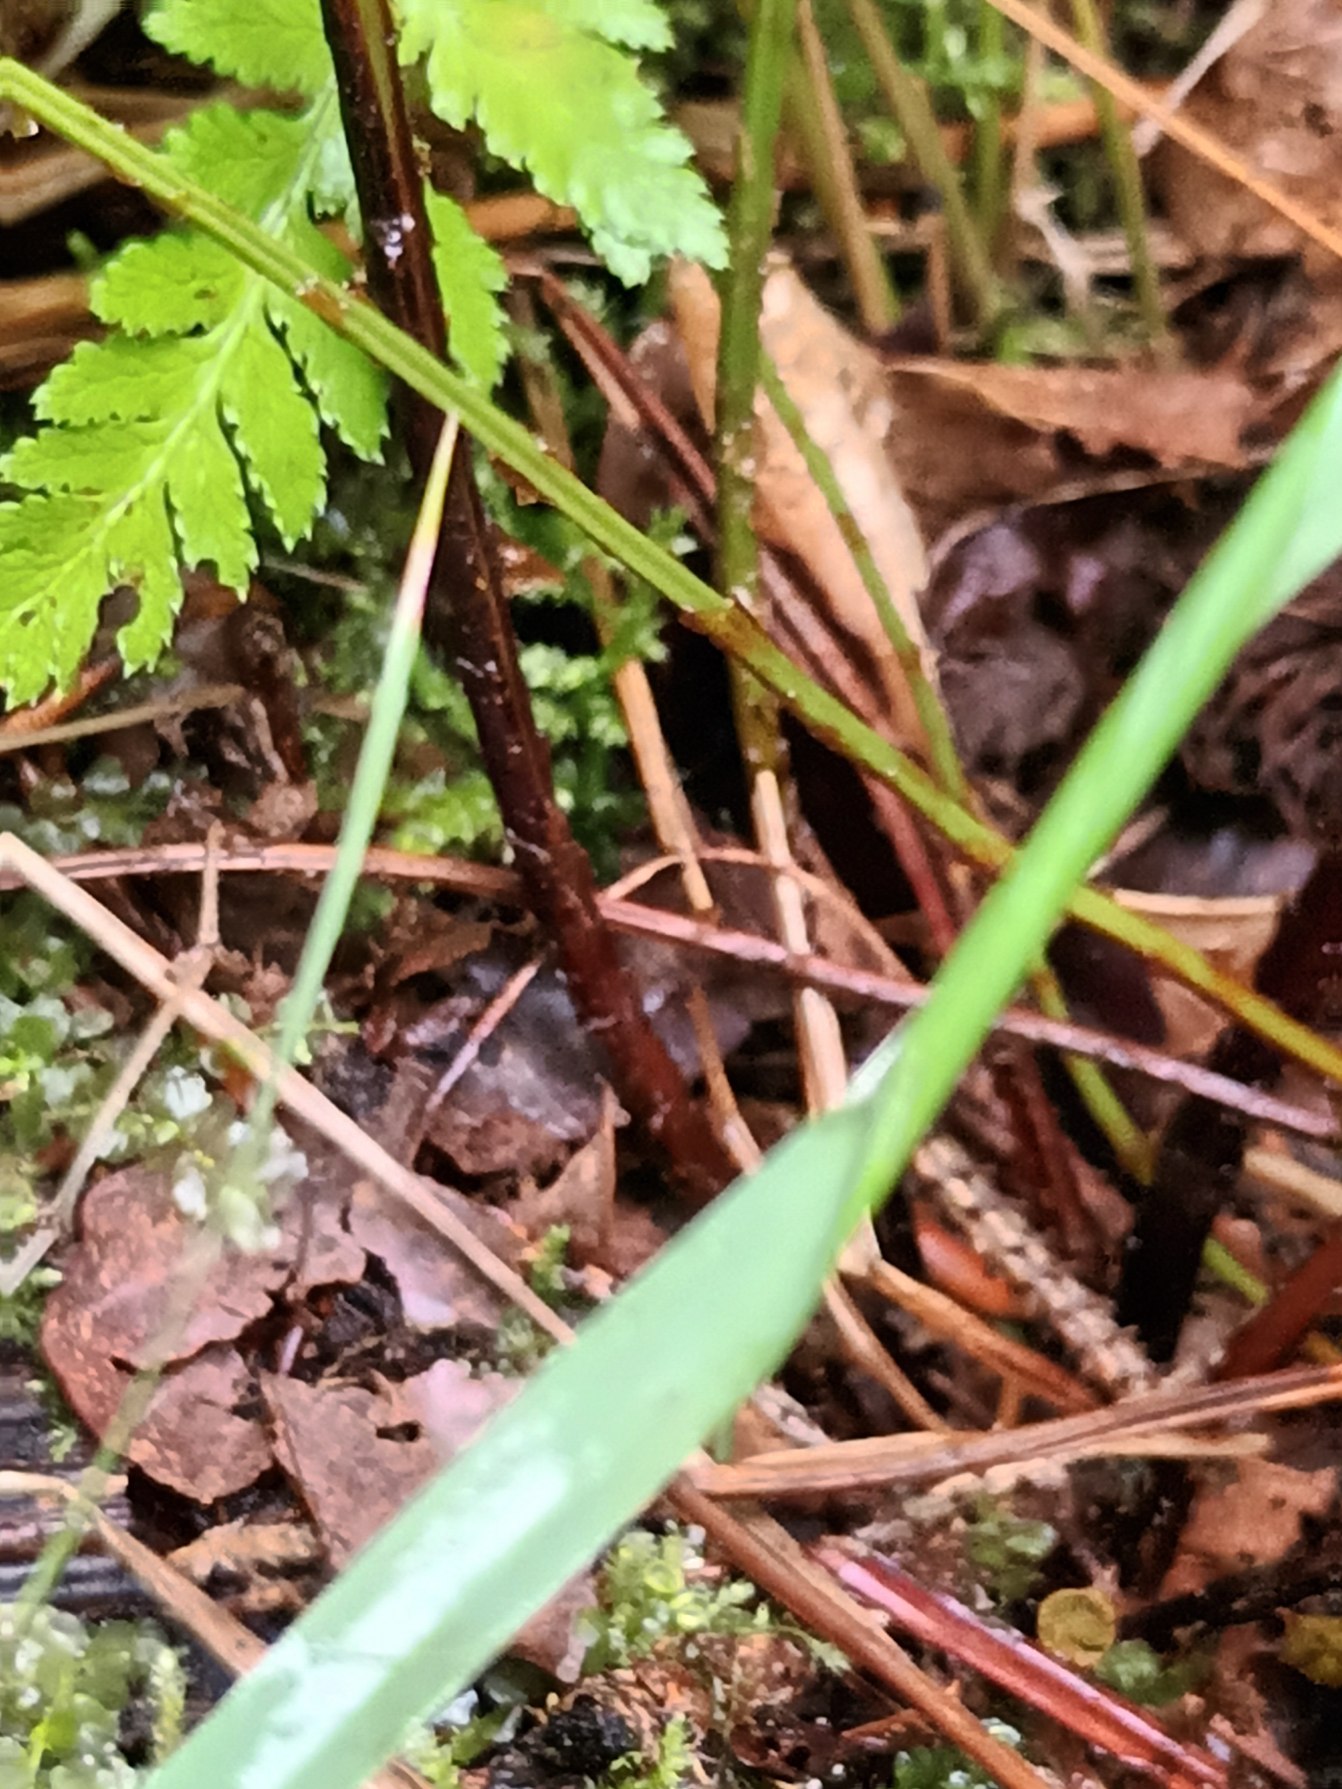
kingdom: Plantae
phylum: Tracheophyta
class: Polypodiopsida
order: Polypodiales
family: Dryopteridaceae
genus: Dryopteris
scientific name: Dryopteris carthusiana
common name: Smalbladet mangeløv
